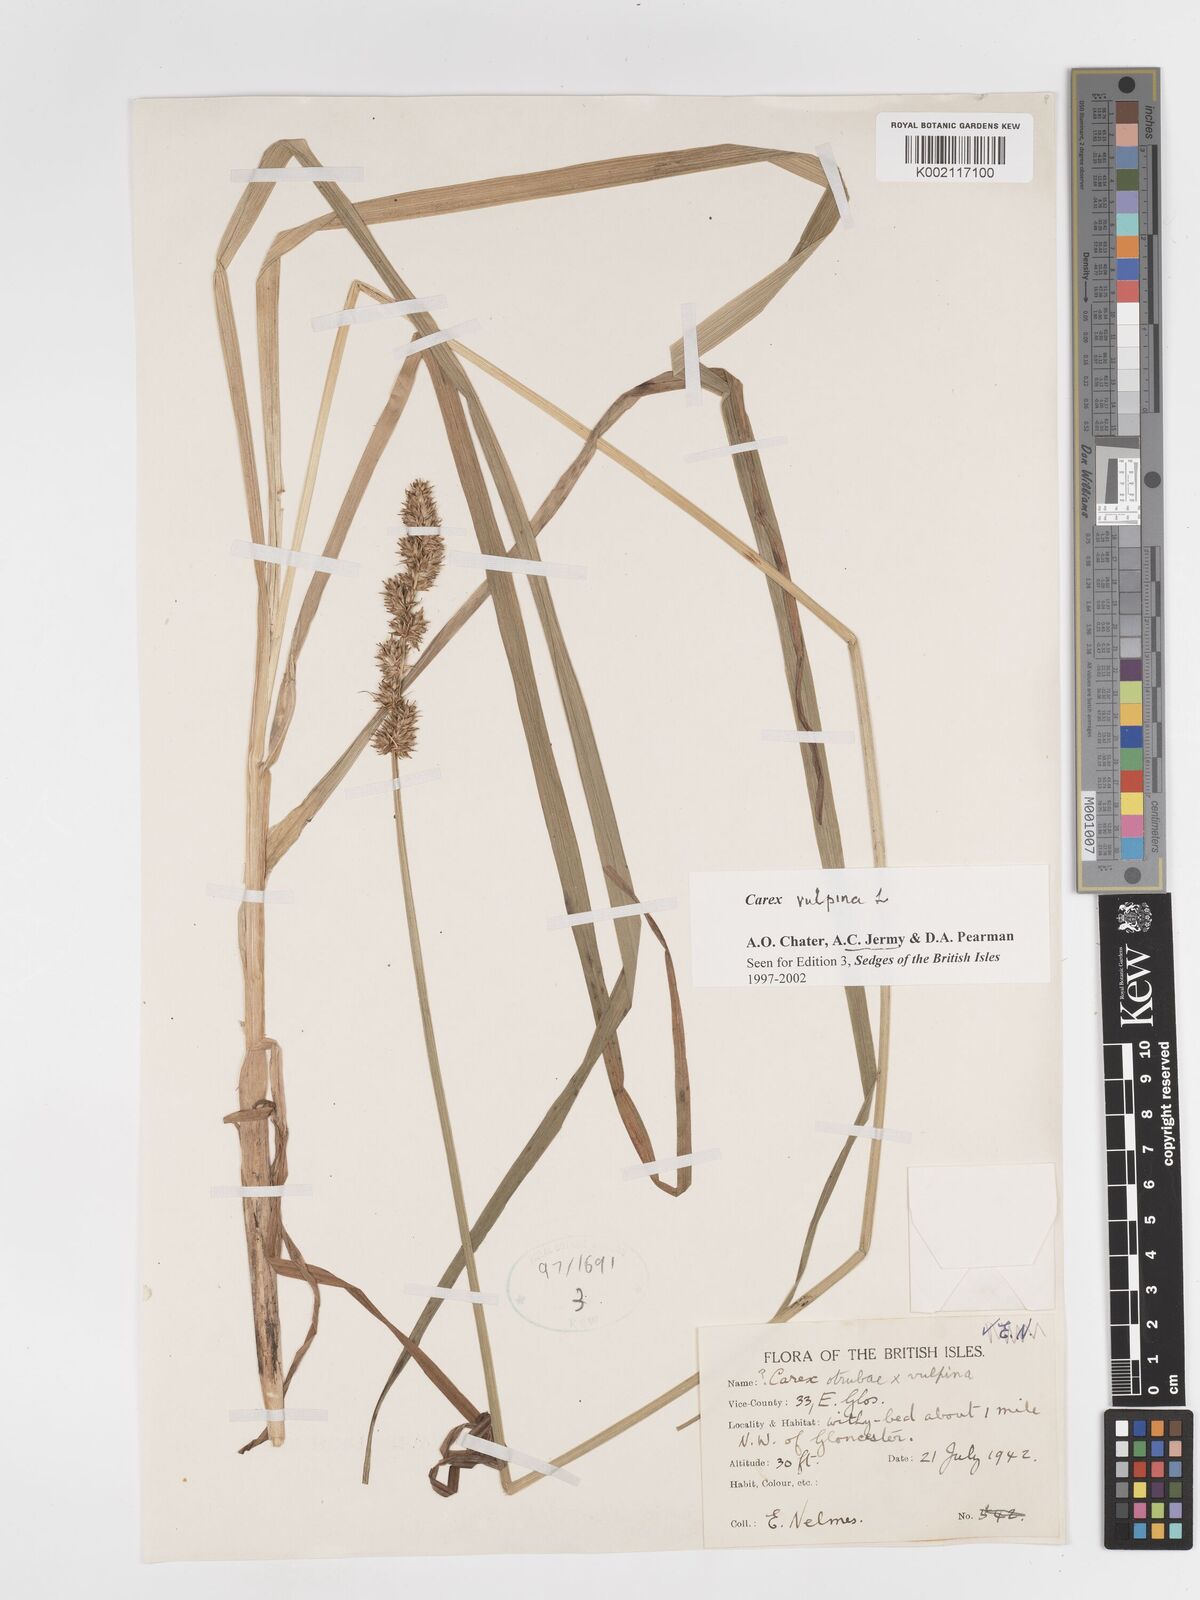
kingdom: Plantae
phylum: Tracheophyta
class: Liliopsida
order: Poales
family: Cyperaceae
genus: Carex
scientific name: Carex vulpina
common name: True fox-sedge
